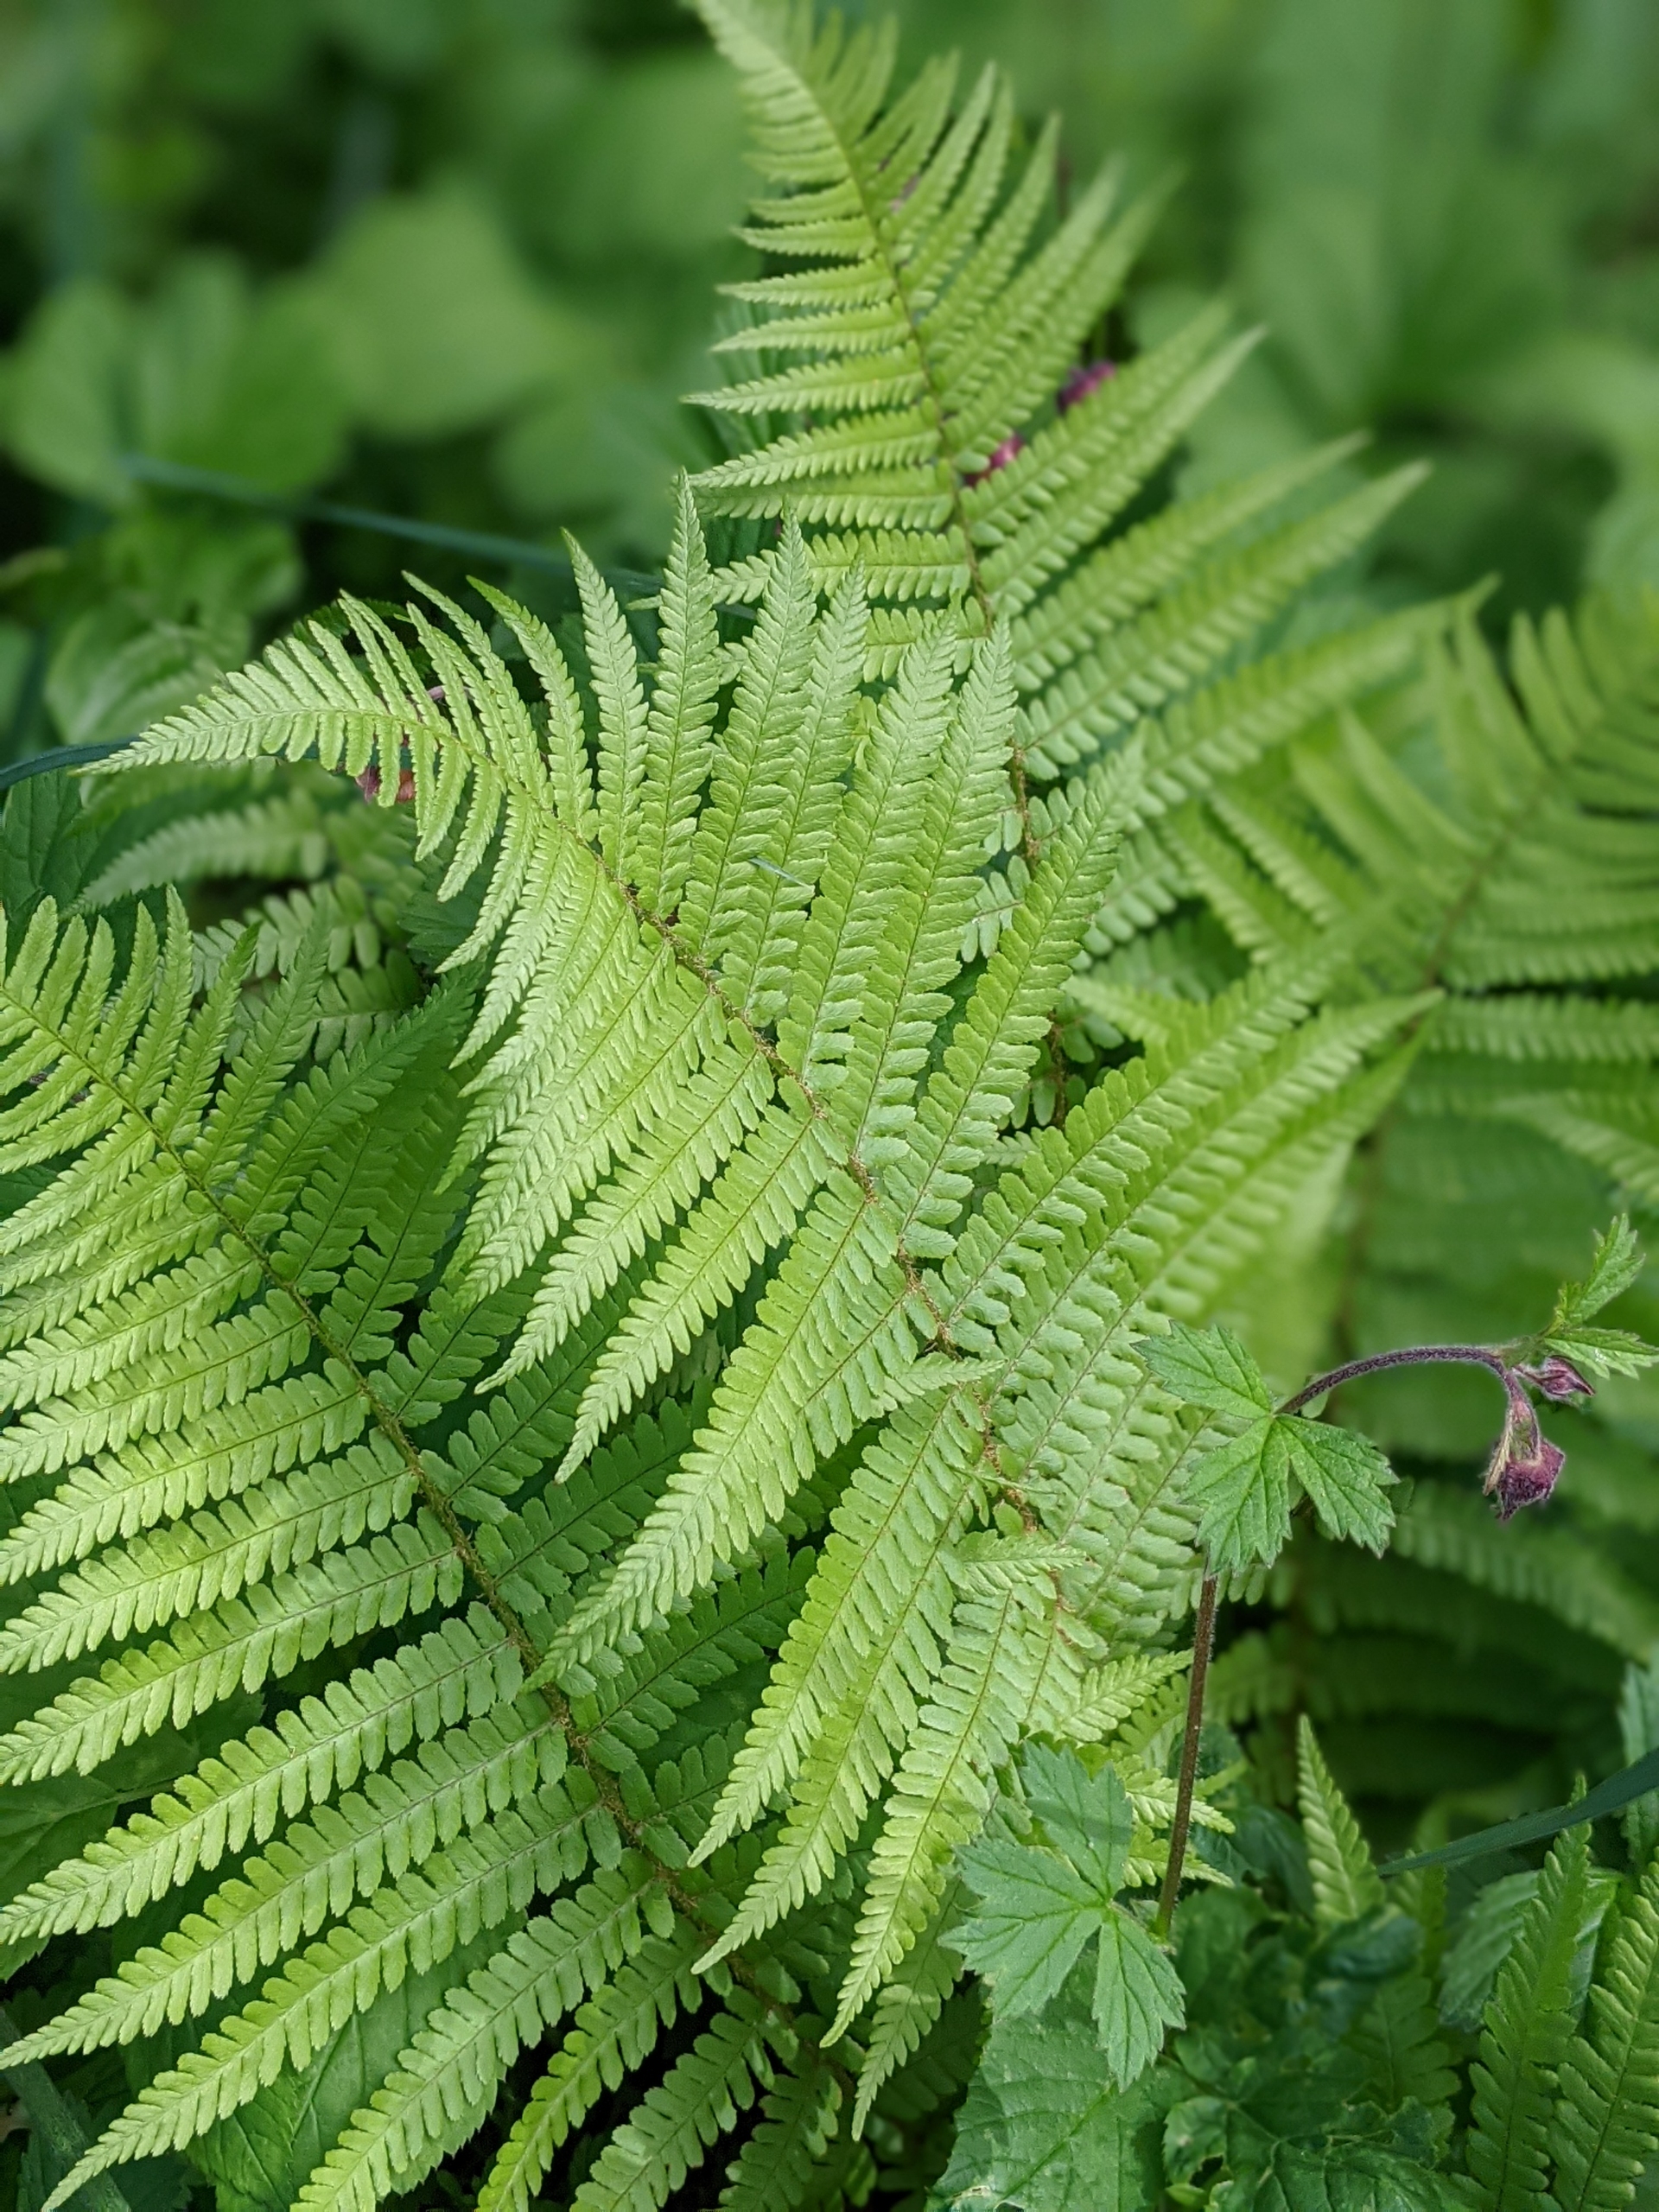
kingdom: Plantae
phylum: Tracheophyta
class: Polypodiopsida
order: Polypodiales
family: Dryopteridaceae
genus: Dryopteris
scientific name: Dryopteris filix-mas
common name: Almindelig mangeløv
